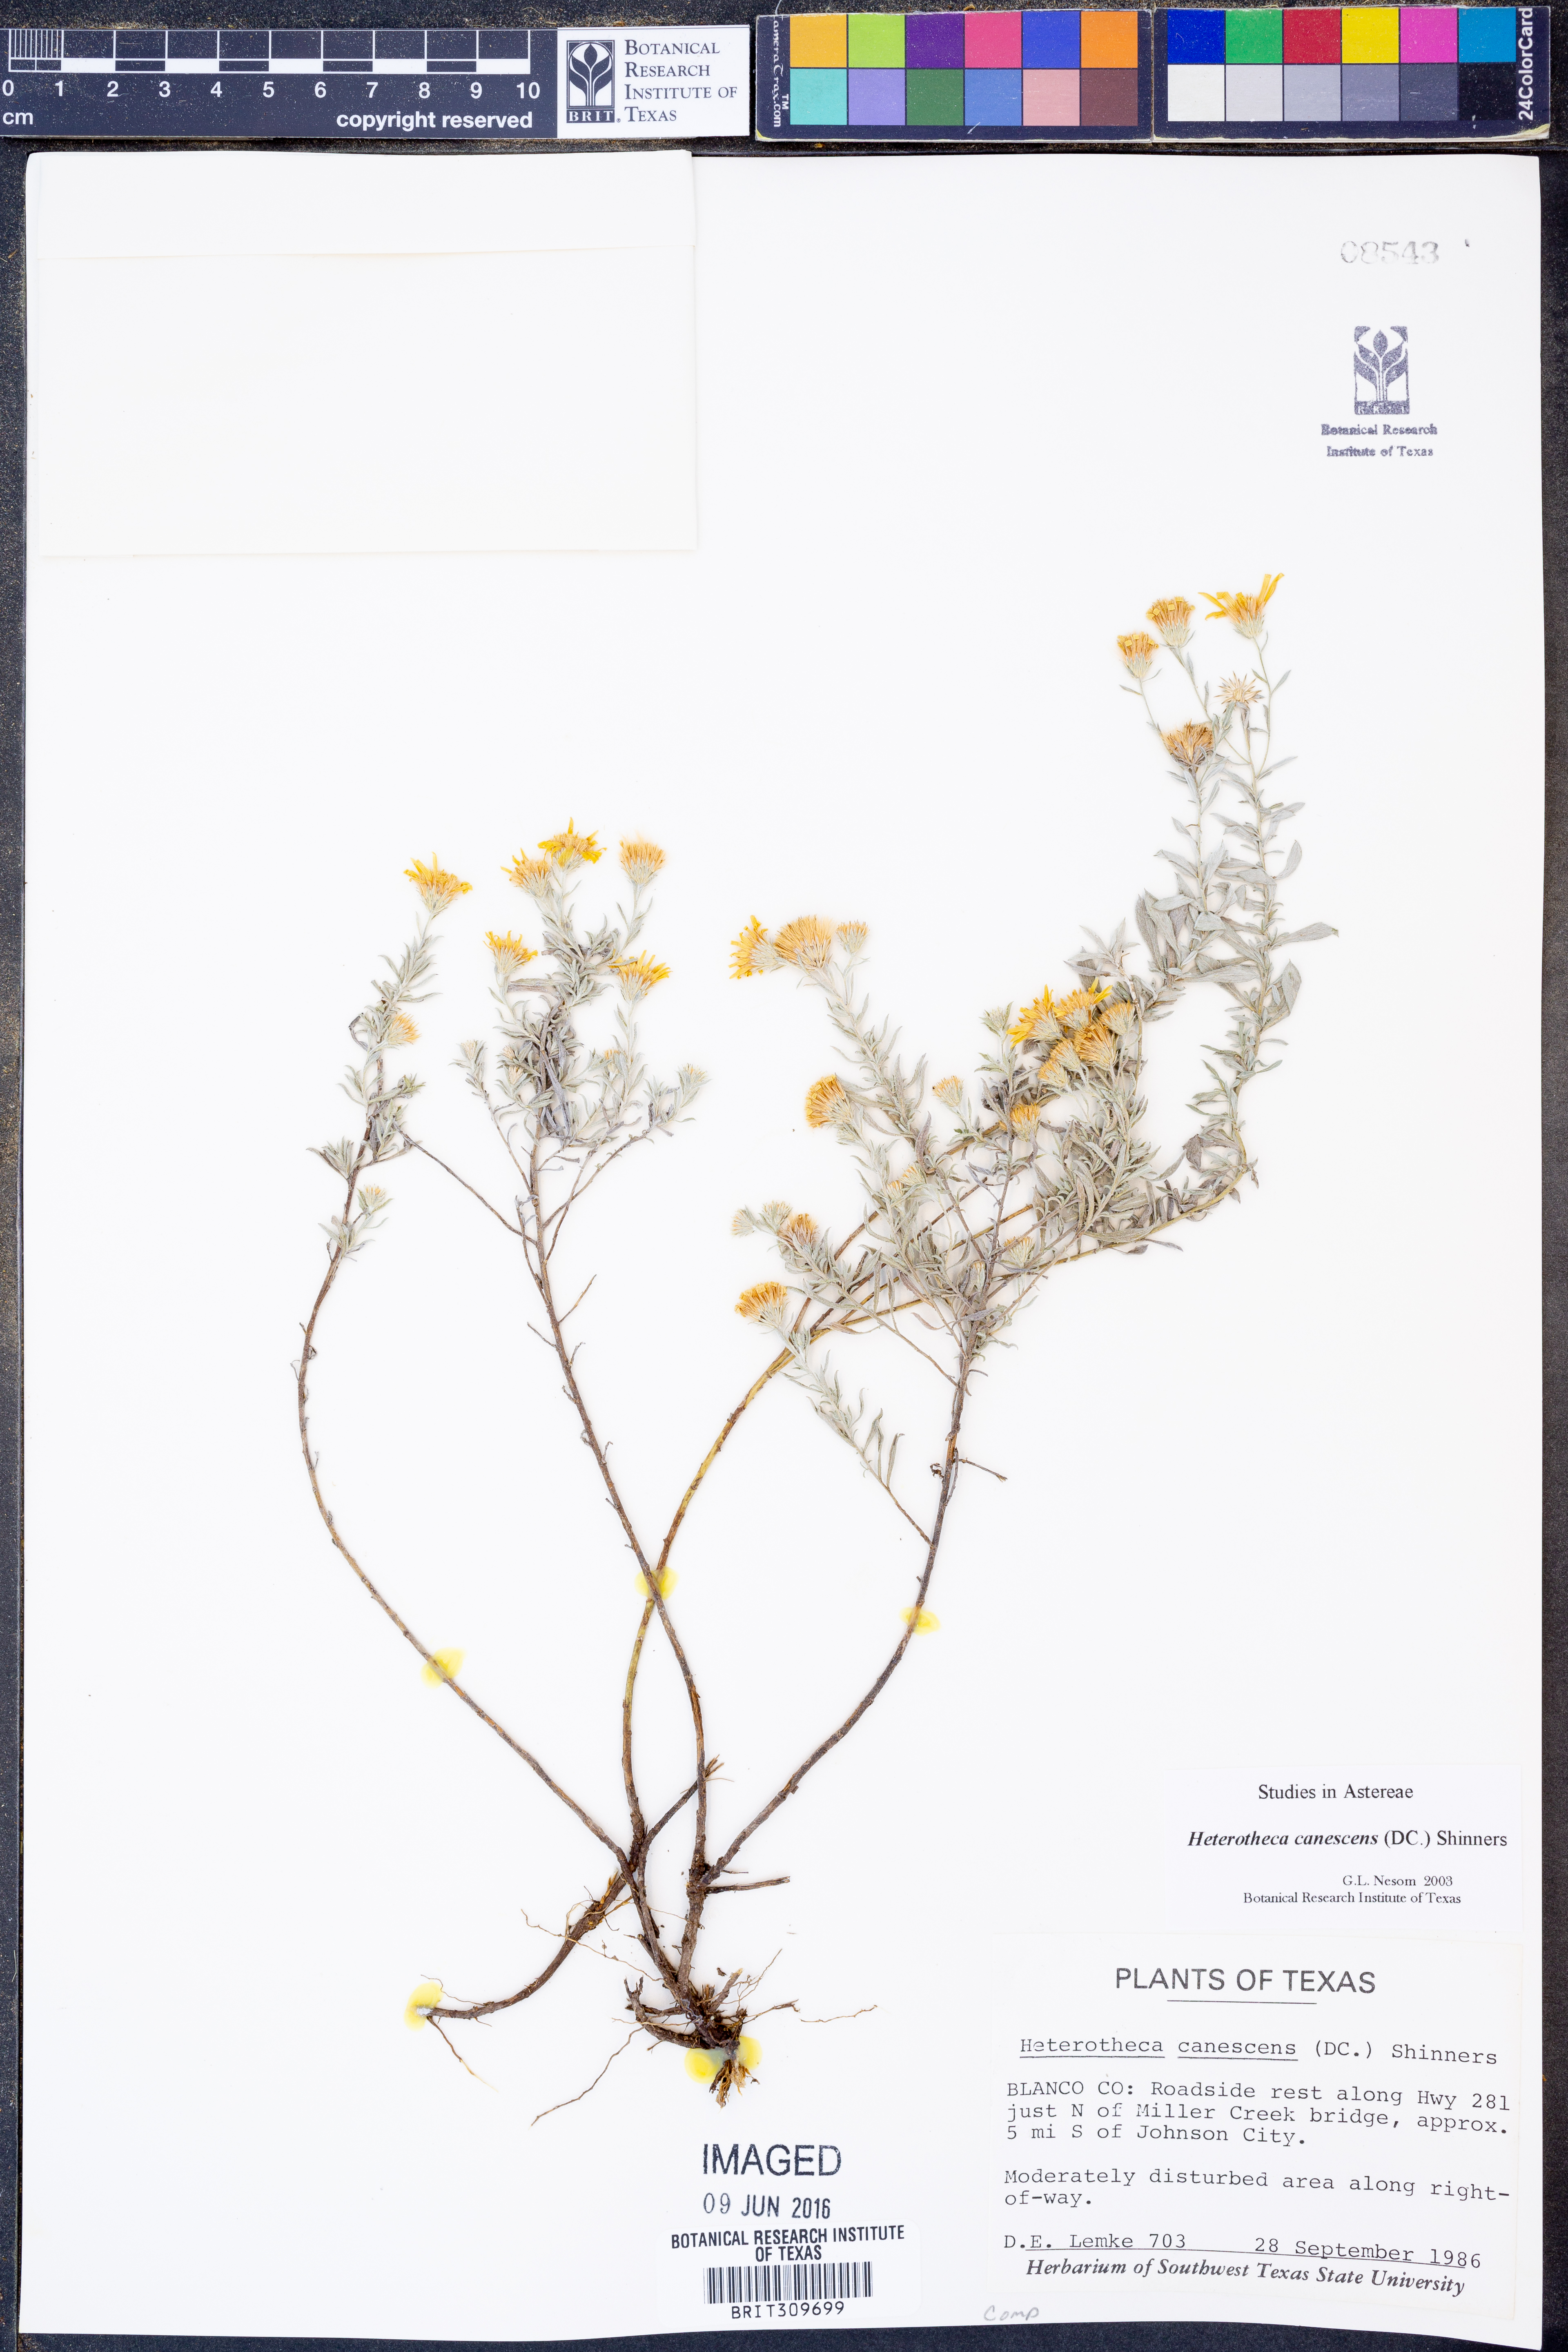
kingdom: Plantae
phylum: Tracheophyta
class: Magnoliopsida
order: Asterales
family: Asteraceae
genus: Heterotheca
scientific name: Heterotheca canescens
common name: Hoary golden-aster
